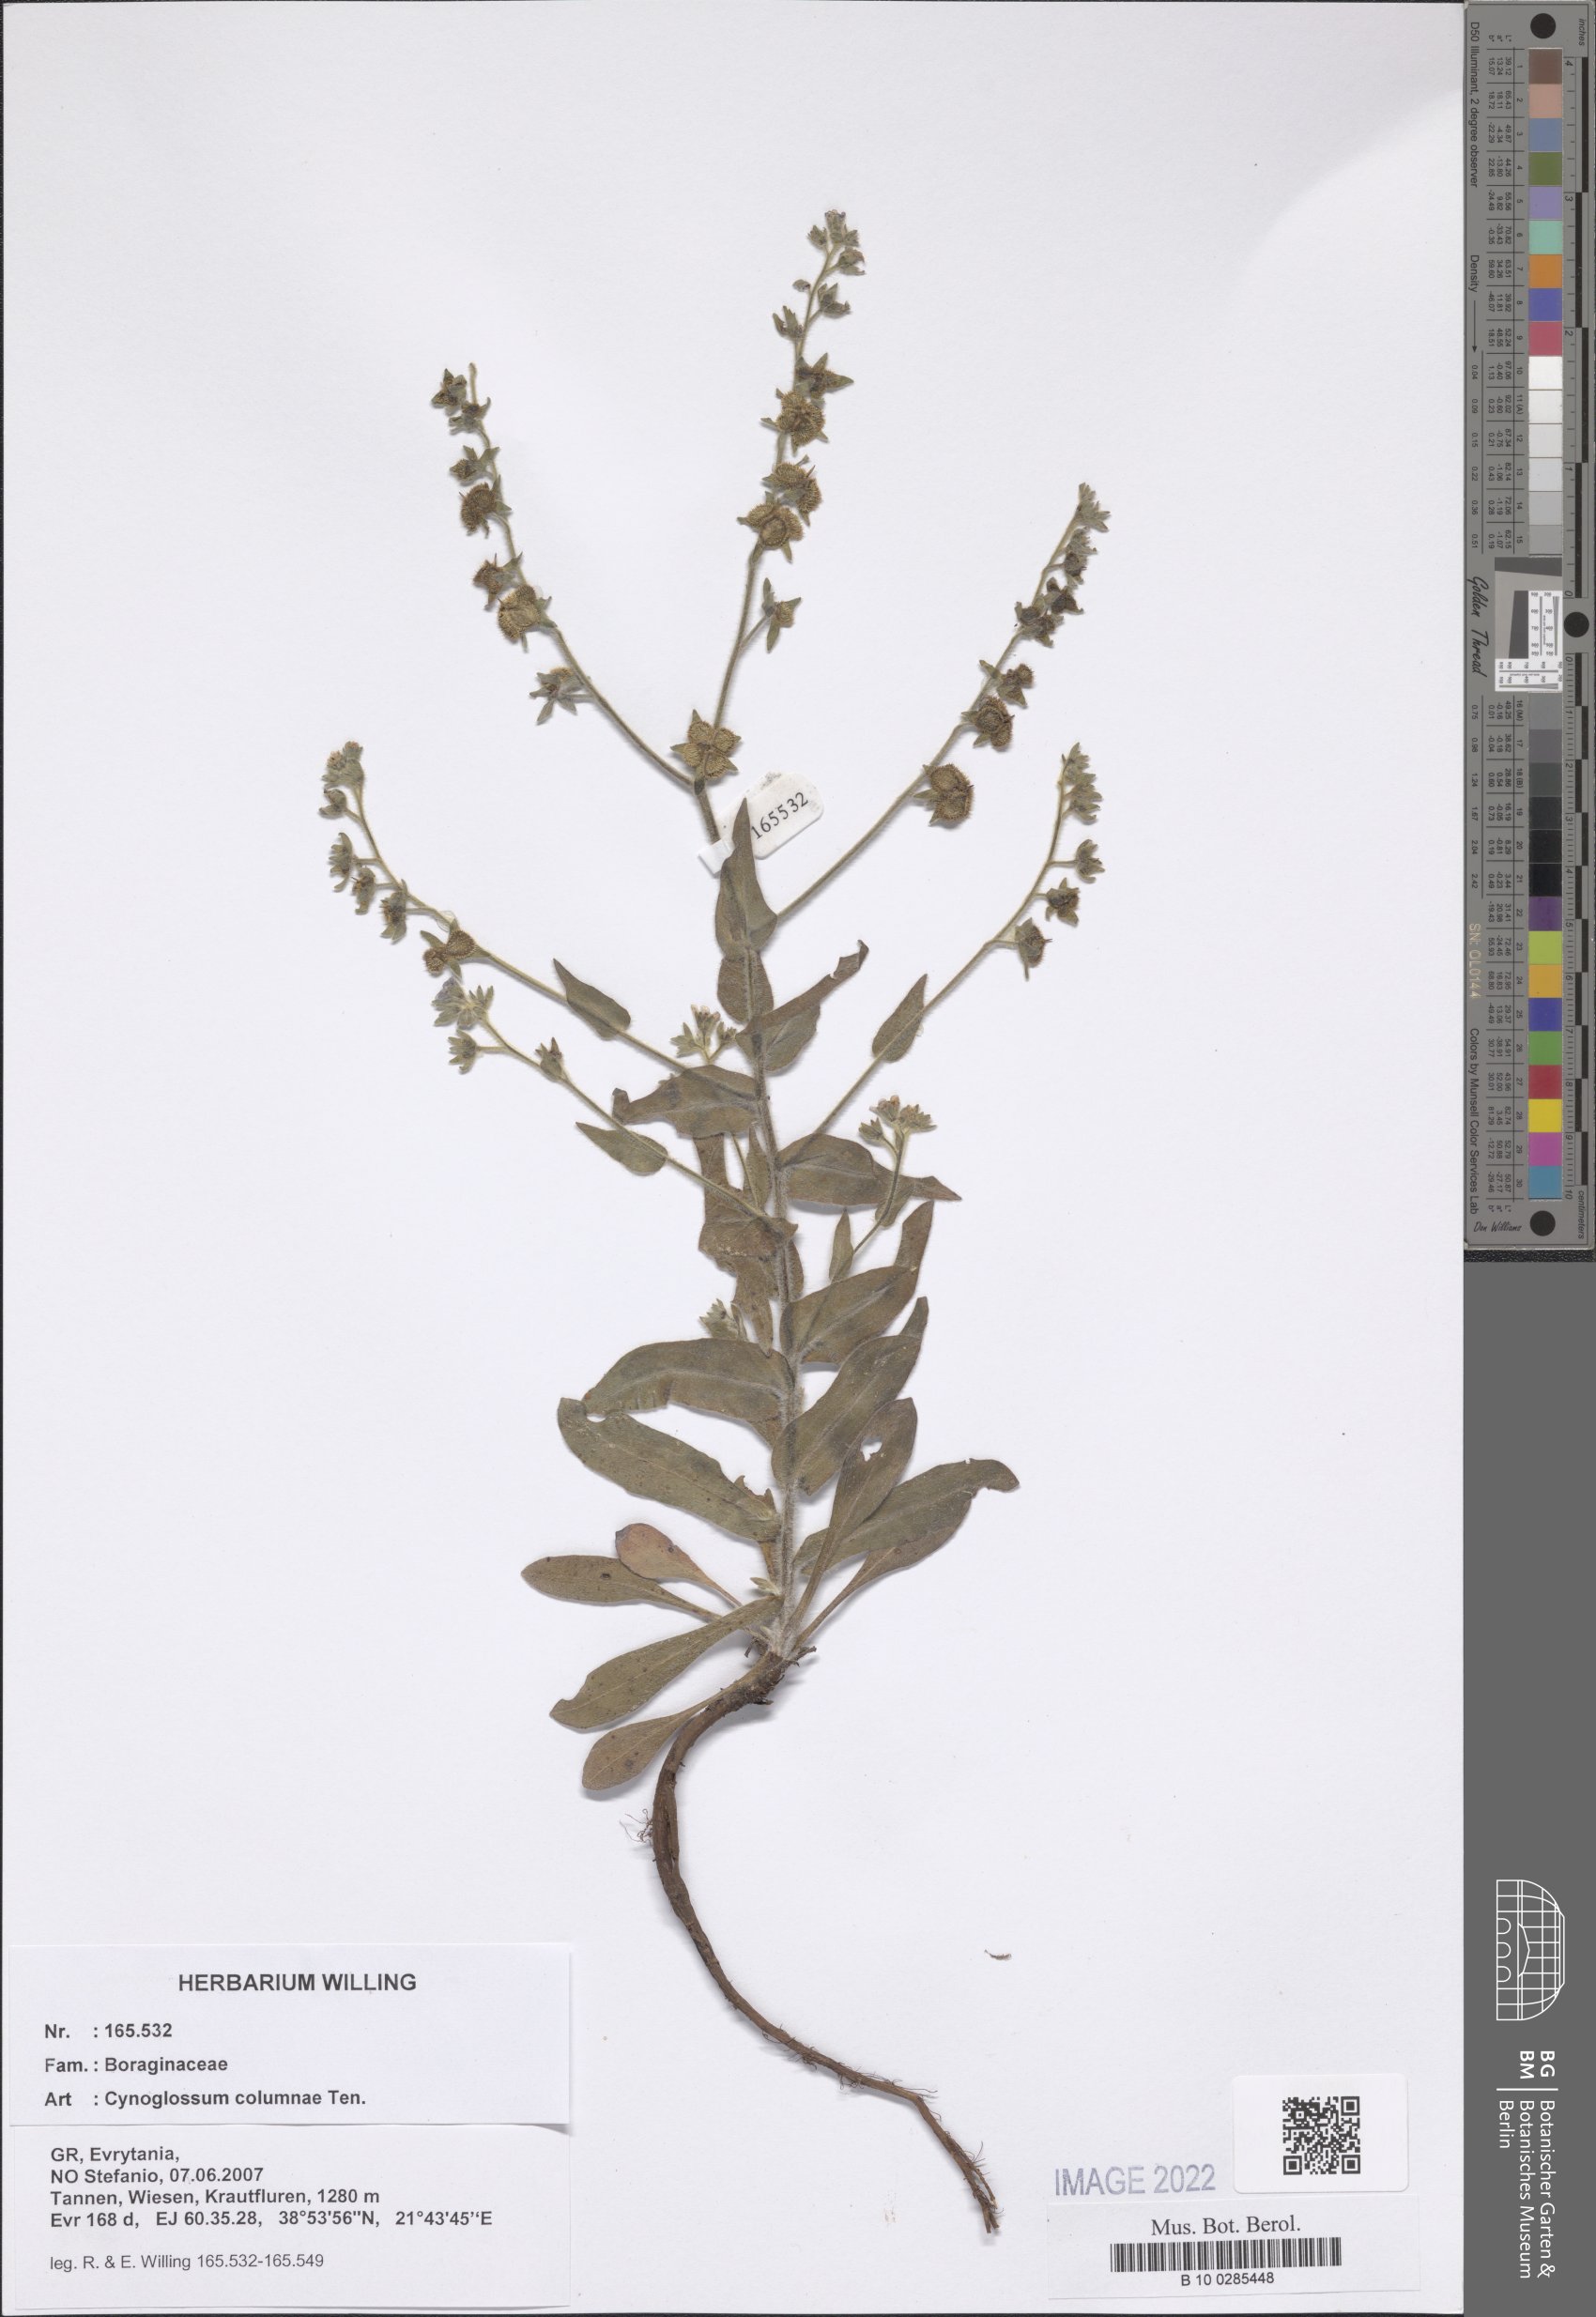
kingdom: Plantae
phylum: Tracheophyta
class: Magnoliopsida
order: Boraginales
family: Boraginaceae
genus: Rindera
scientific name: Rindera columnae
